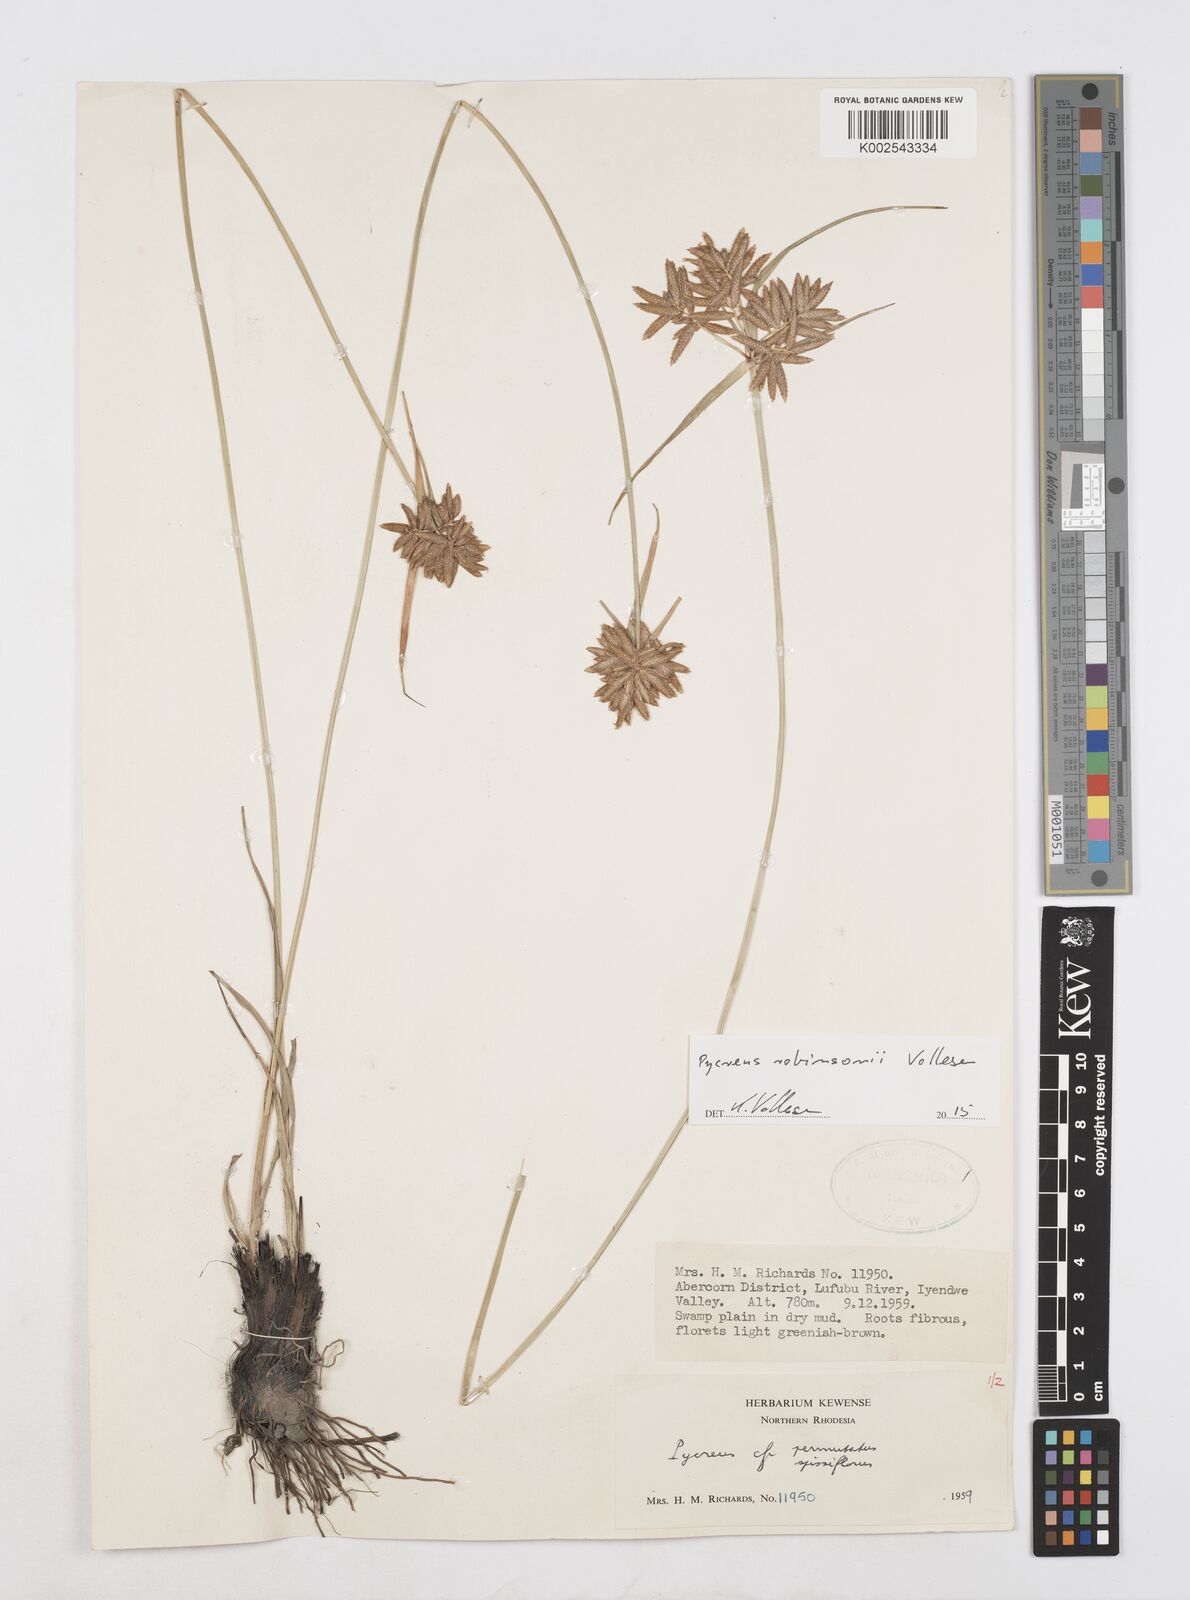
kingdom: Plantae
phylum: Tracheophyta
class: Liliopsida
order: Poales
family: Cyperaceae
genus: Cyperus
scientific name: Cyperus tenuiculmis
